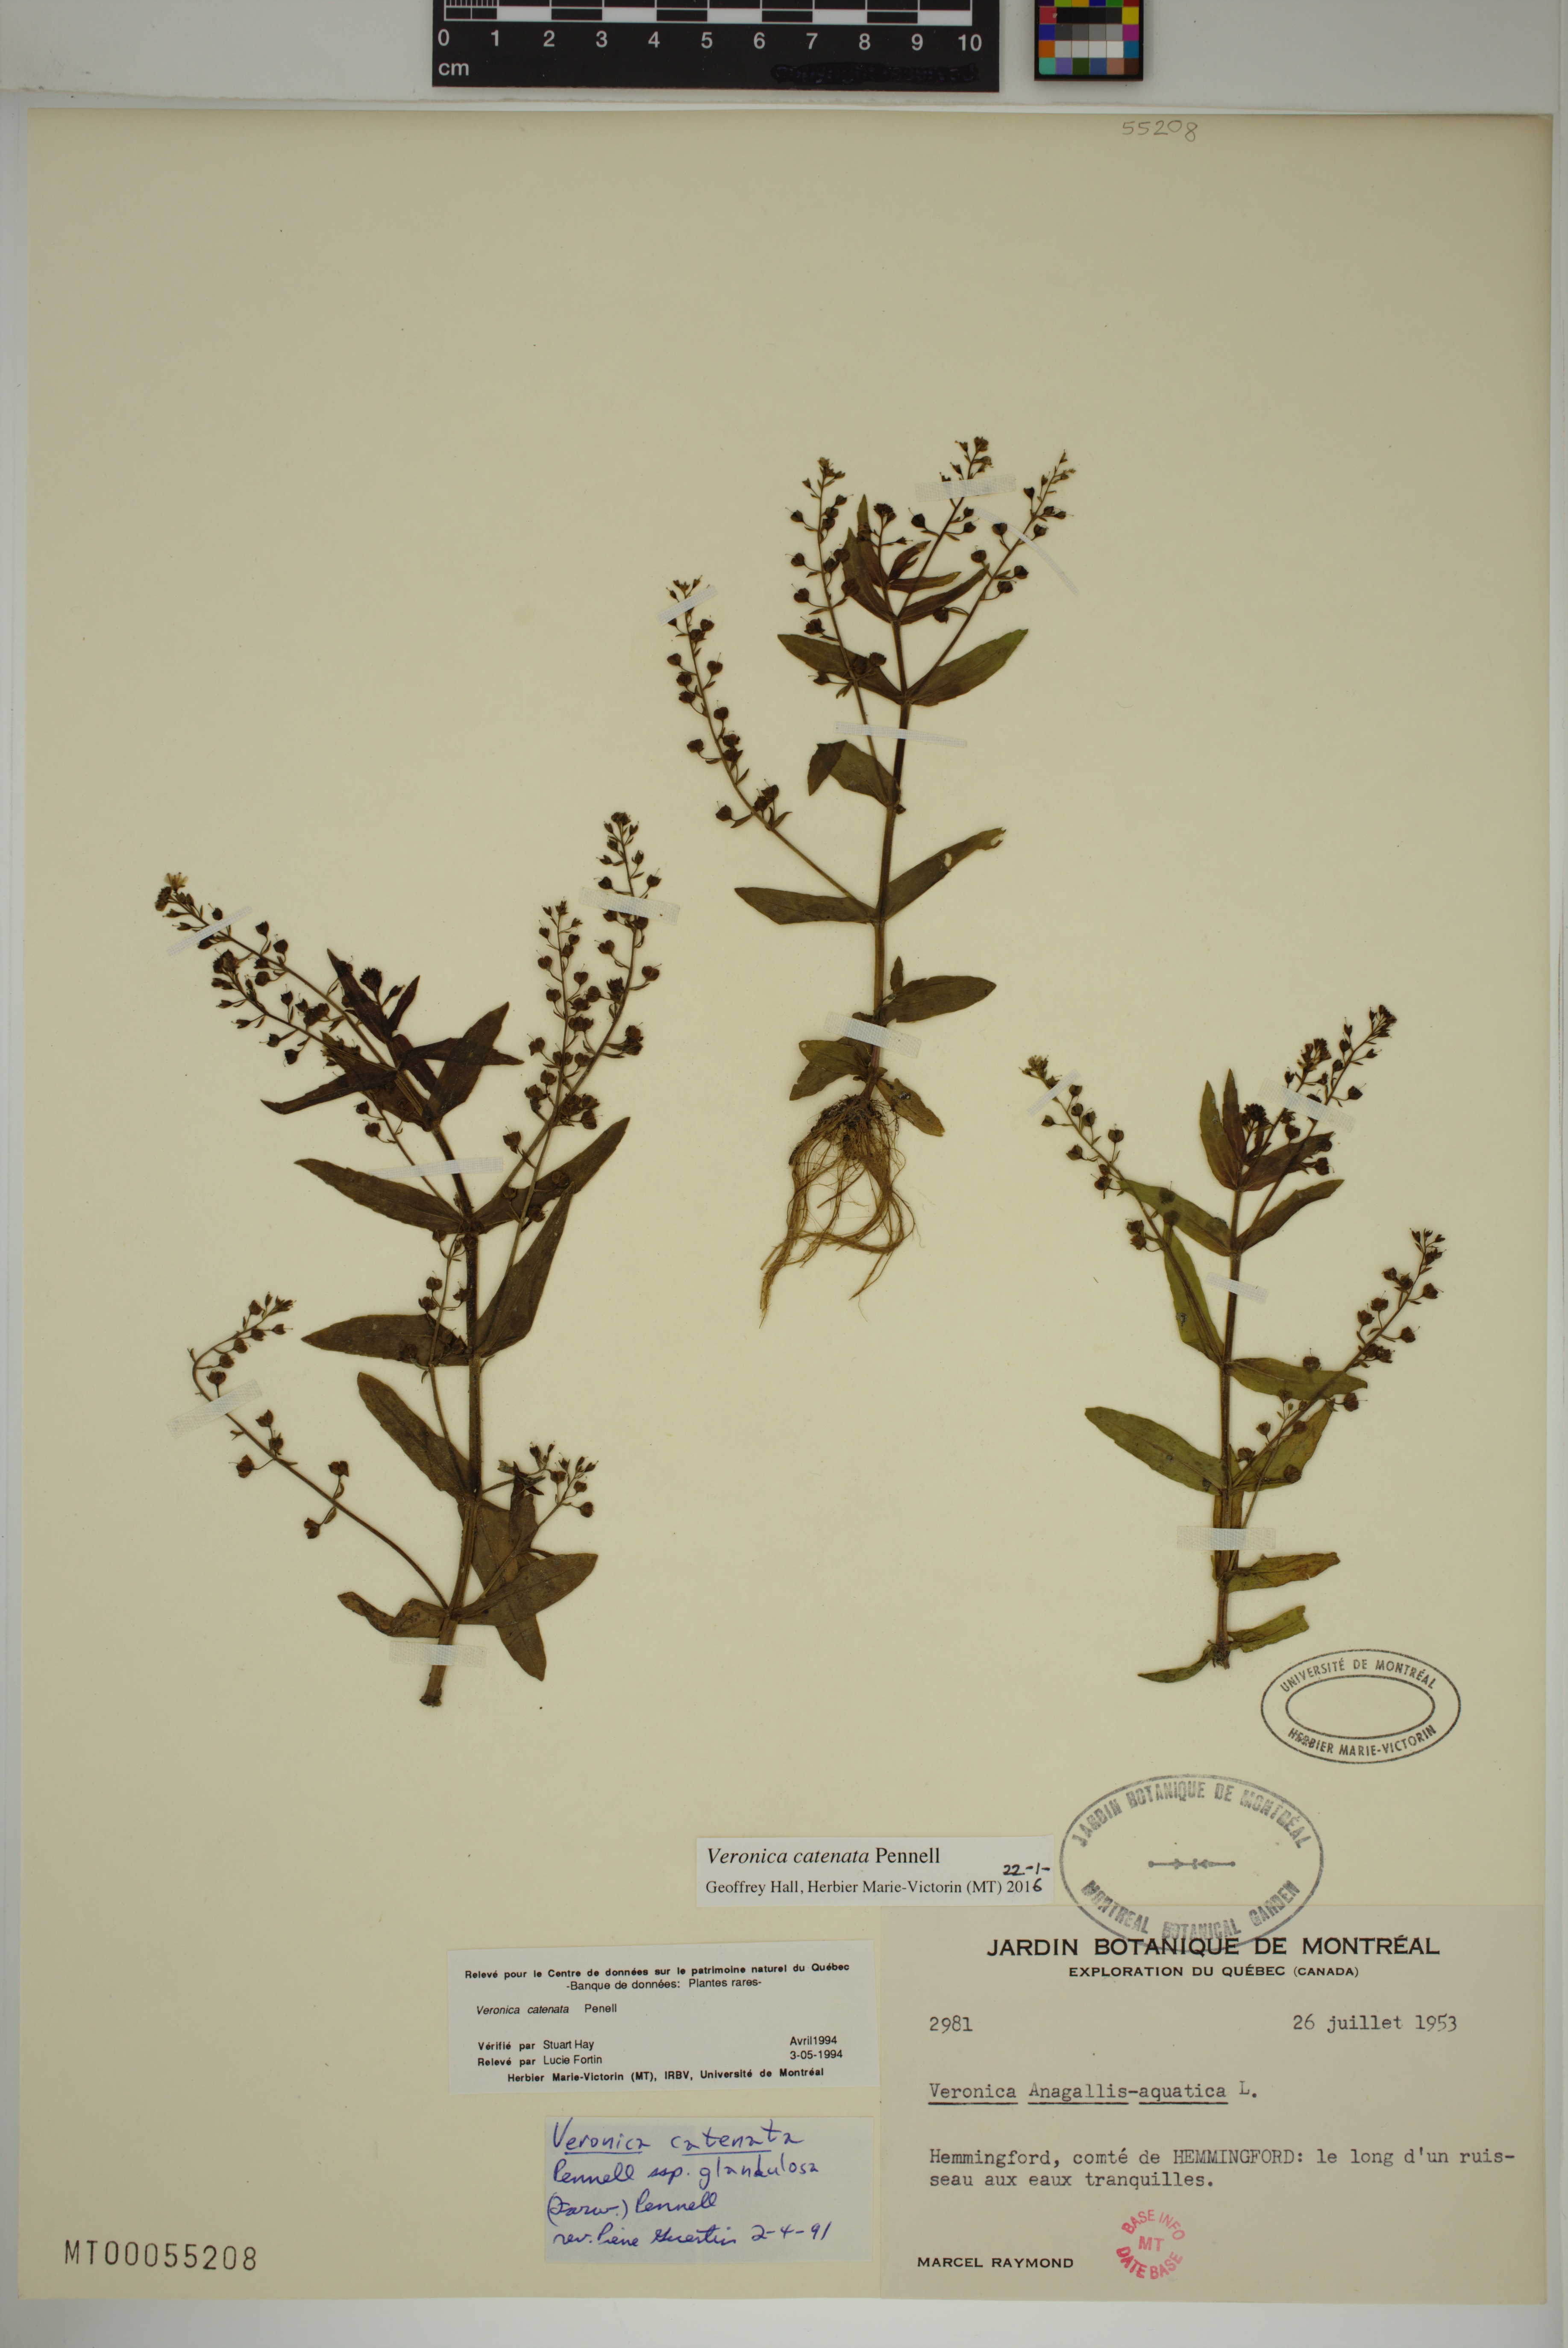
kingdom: Plantae
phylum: Tracheophyta
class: Magnoliopsida
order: Lamiales
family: Plantaginaceae
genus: Veronica
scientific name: Veronica catenata
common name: Pink water-speedwell
